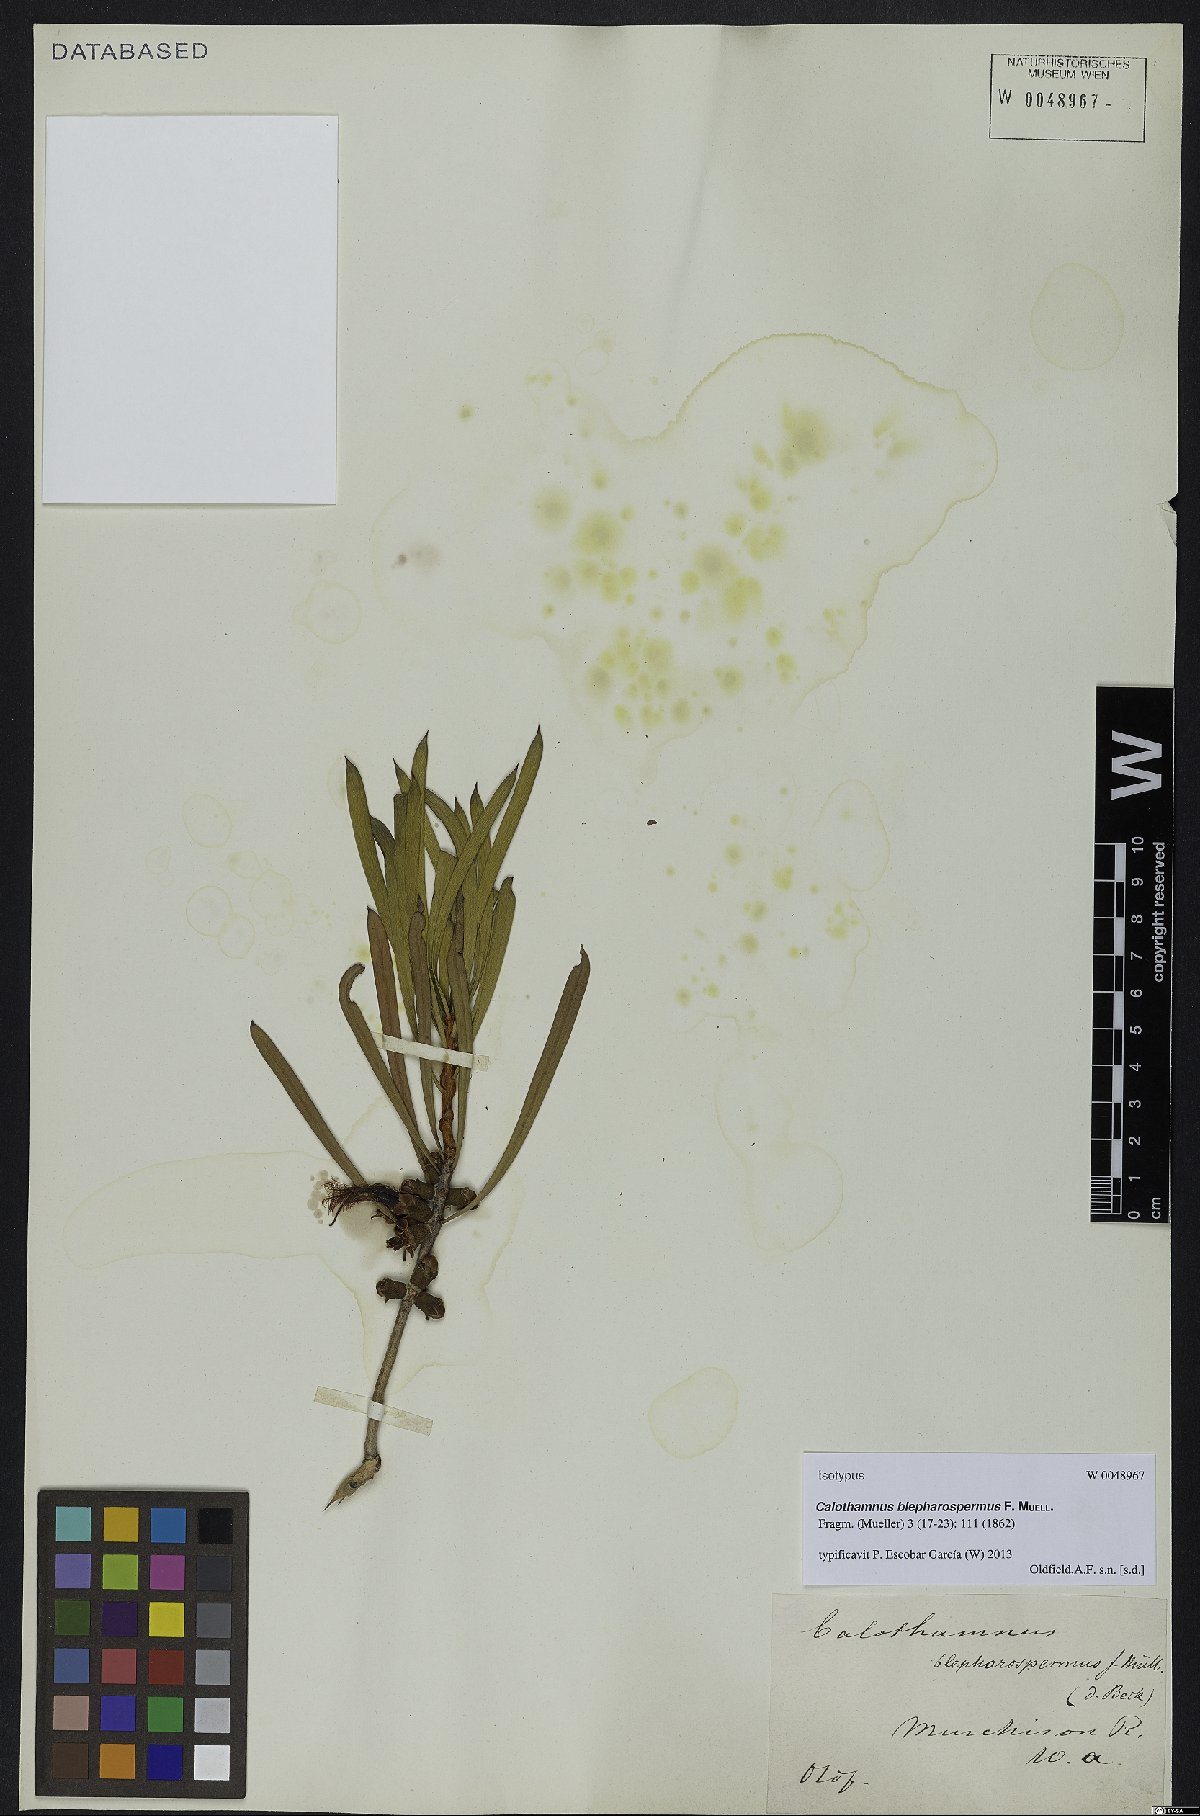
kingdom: Plantae
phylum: Tracheophyta
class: Magnoliopsida
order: Myrtales
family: Myrtaceae
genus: Melaleuca
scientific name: Melaleuca blepharosperma
